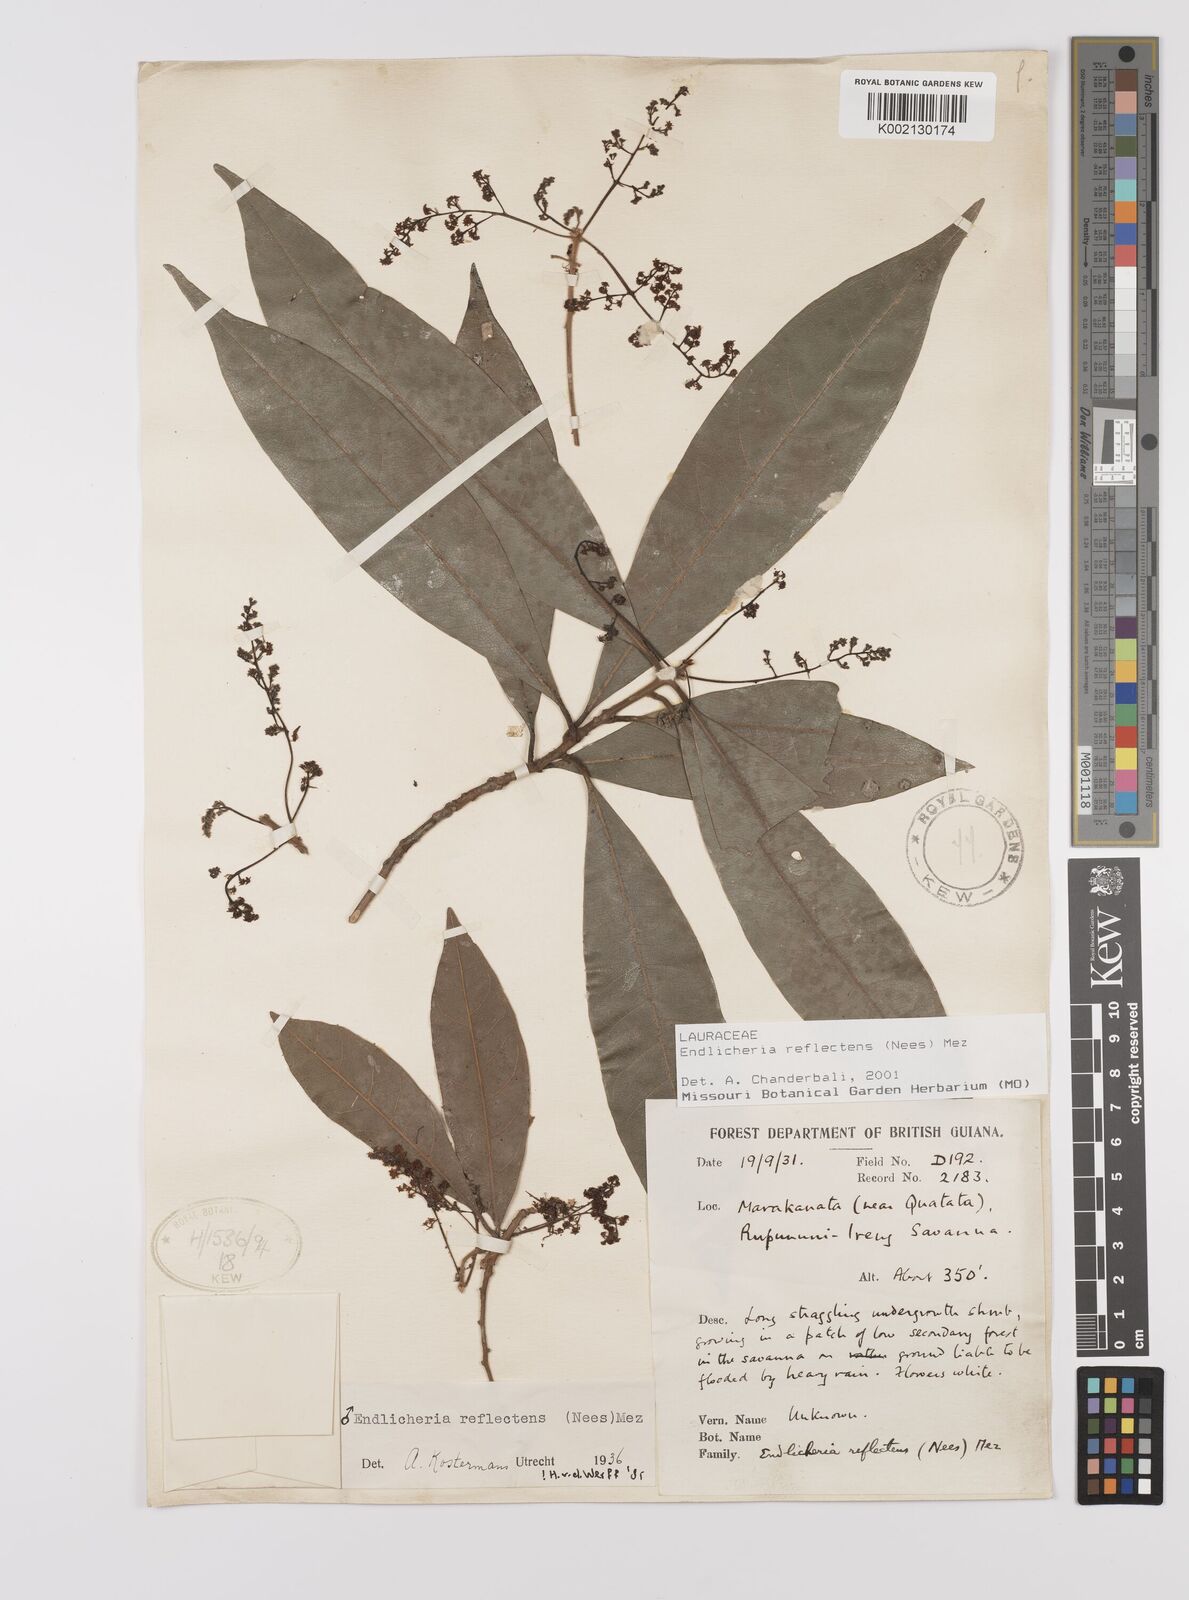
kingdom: Plantae
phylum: Tracheophyta
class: Magnoliopsida
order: Laurales
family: Lauraceae
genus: Endlicheria
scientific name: Endlicheria reflectens
